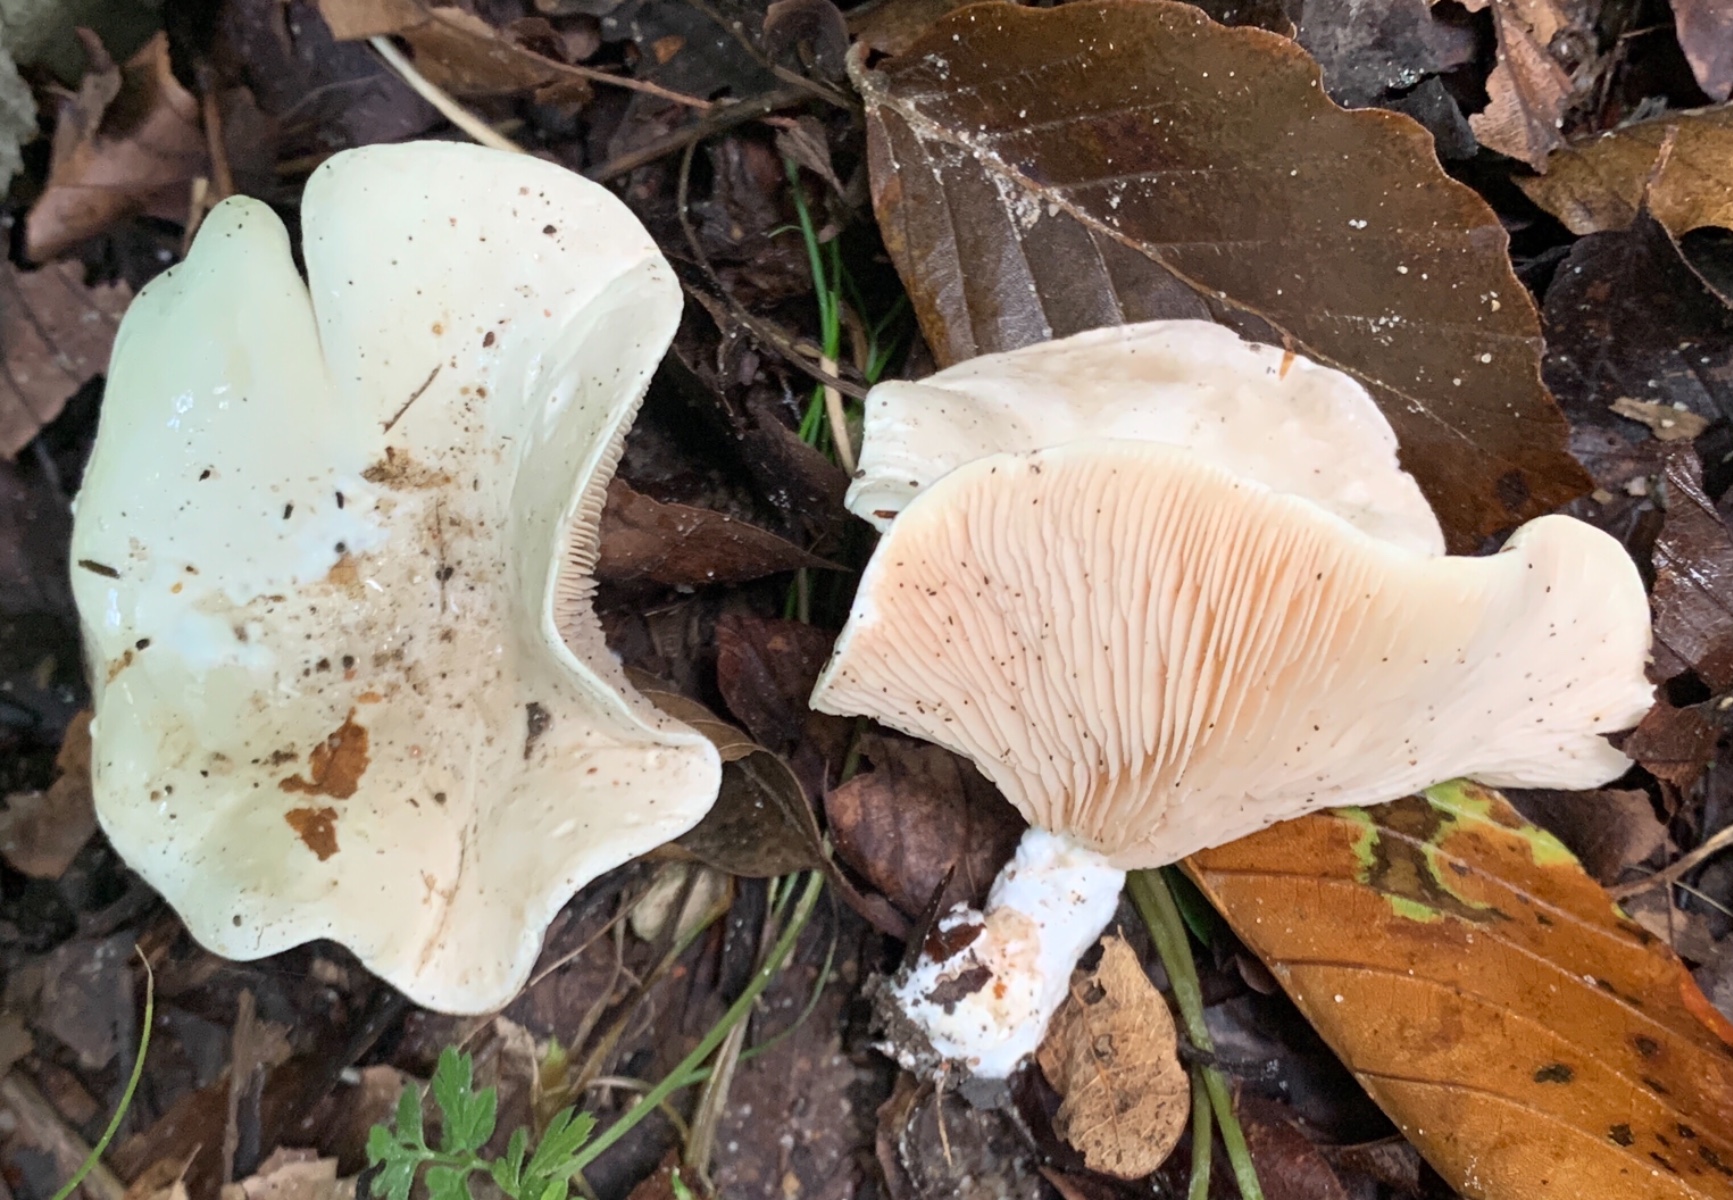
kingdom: Fungi
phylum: Basidiomycota
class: Agaricomycetes
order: Agaricales
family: Entolomataceae
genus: Clitopilus
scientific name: Clitopilus prunulus
